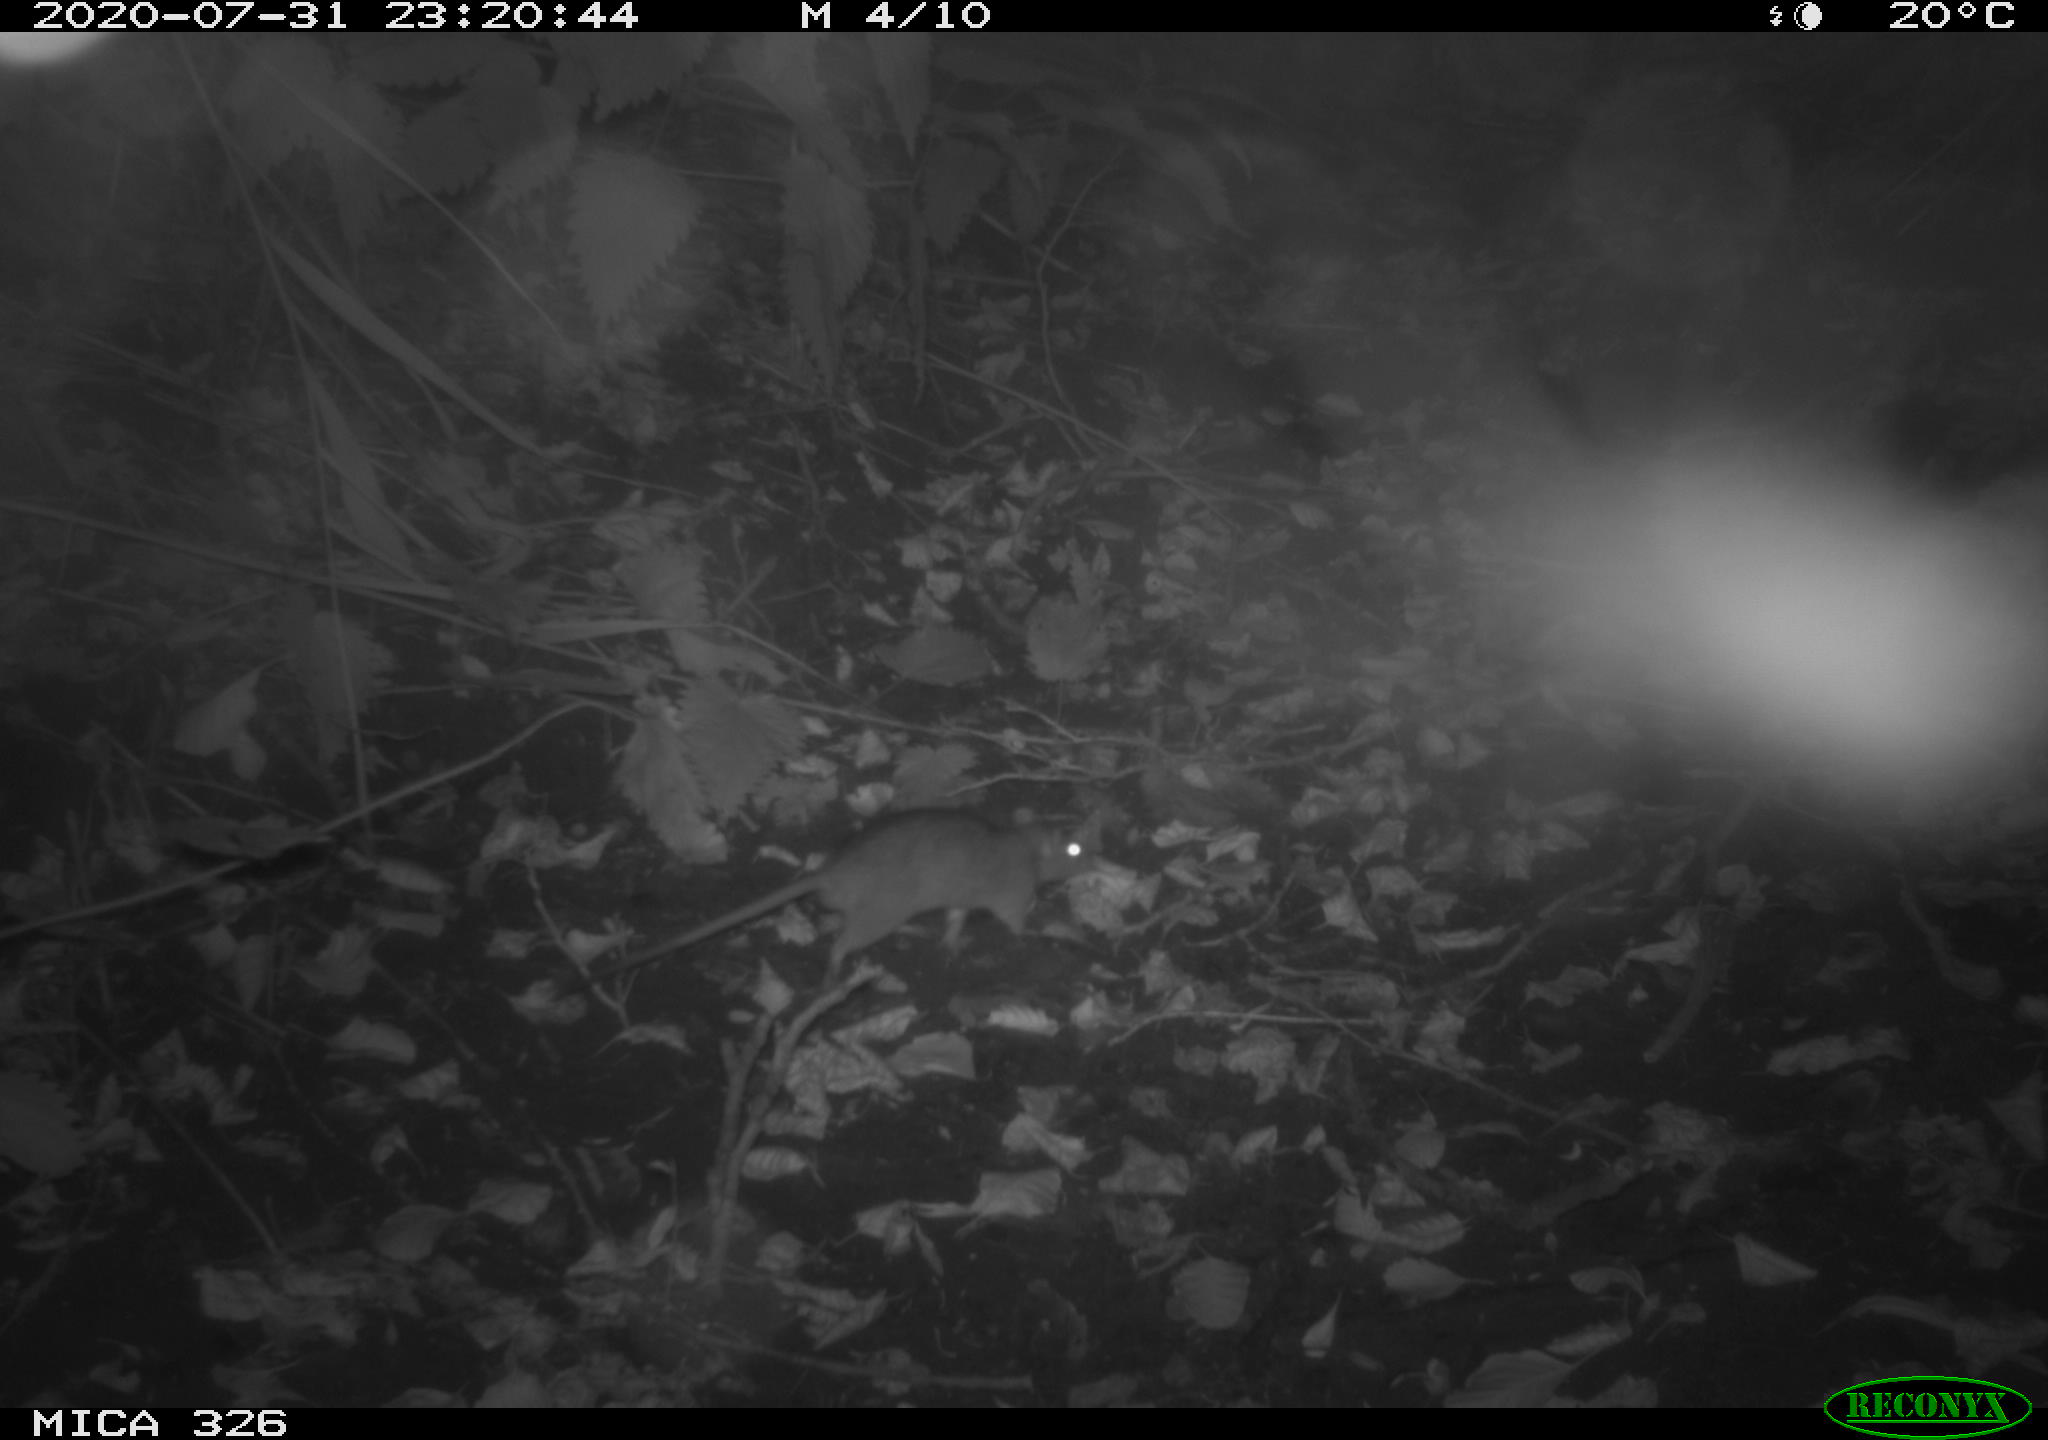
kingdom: Animalia
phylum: Chordata
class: Mammalia
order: Rodentia
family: Muridae
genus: Rattus
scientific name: Rattus norvegicus
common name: Brown rat
